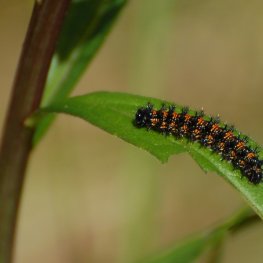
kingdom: Animalia
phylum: Arthropoda
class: Insecta
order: Lepidoptera
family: Nymphalidae
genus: Chlosyne
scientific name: Chlosyne harrisii
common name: Harris's Checkerspot
